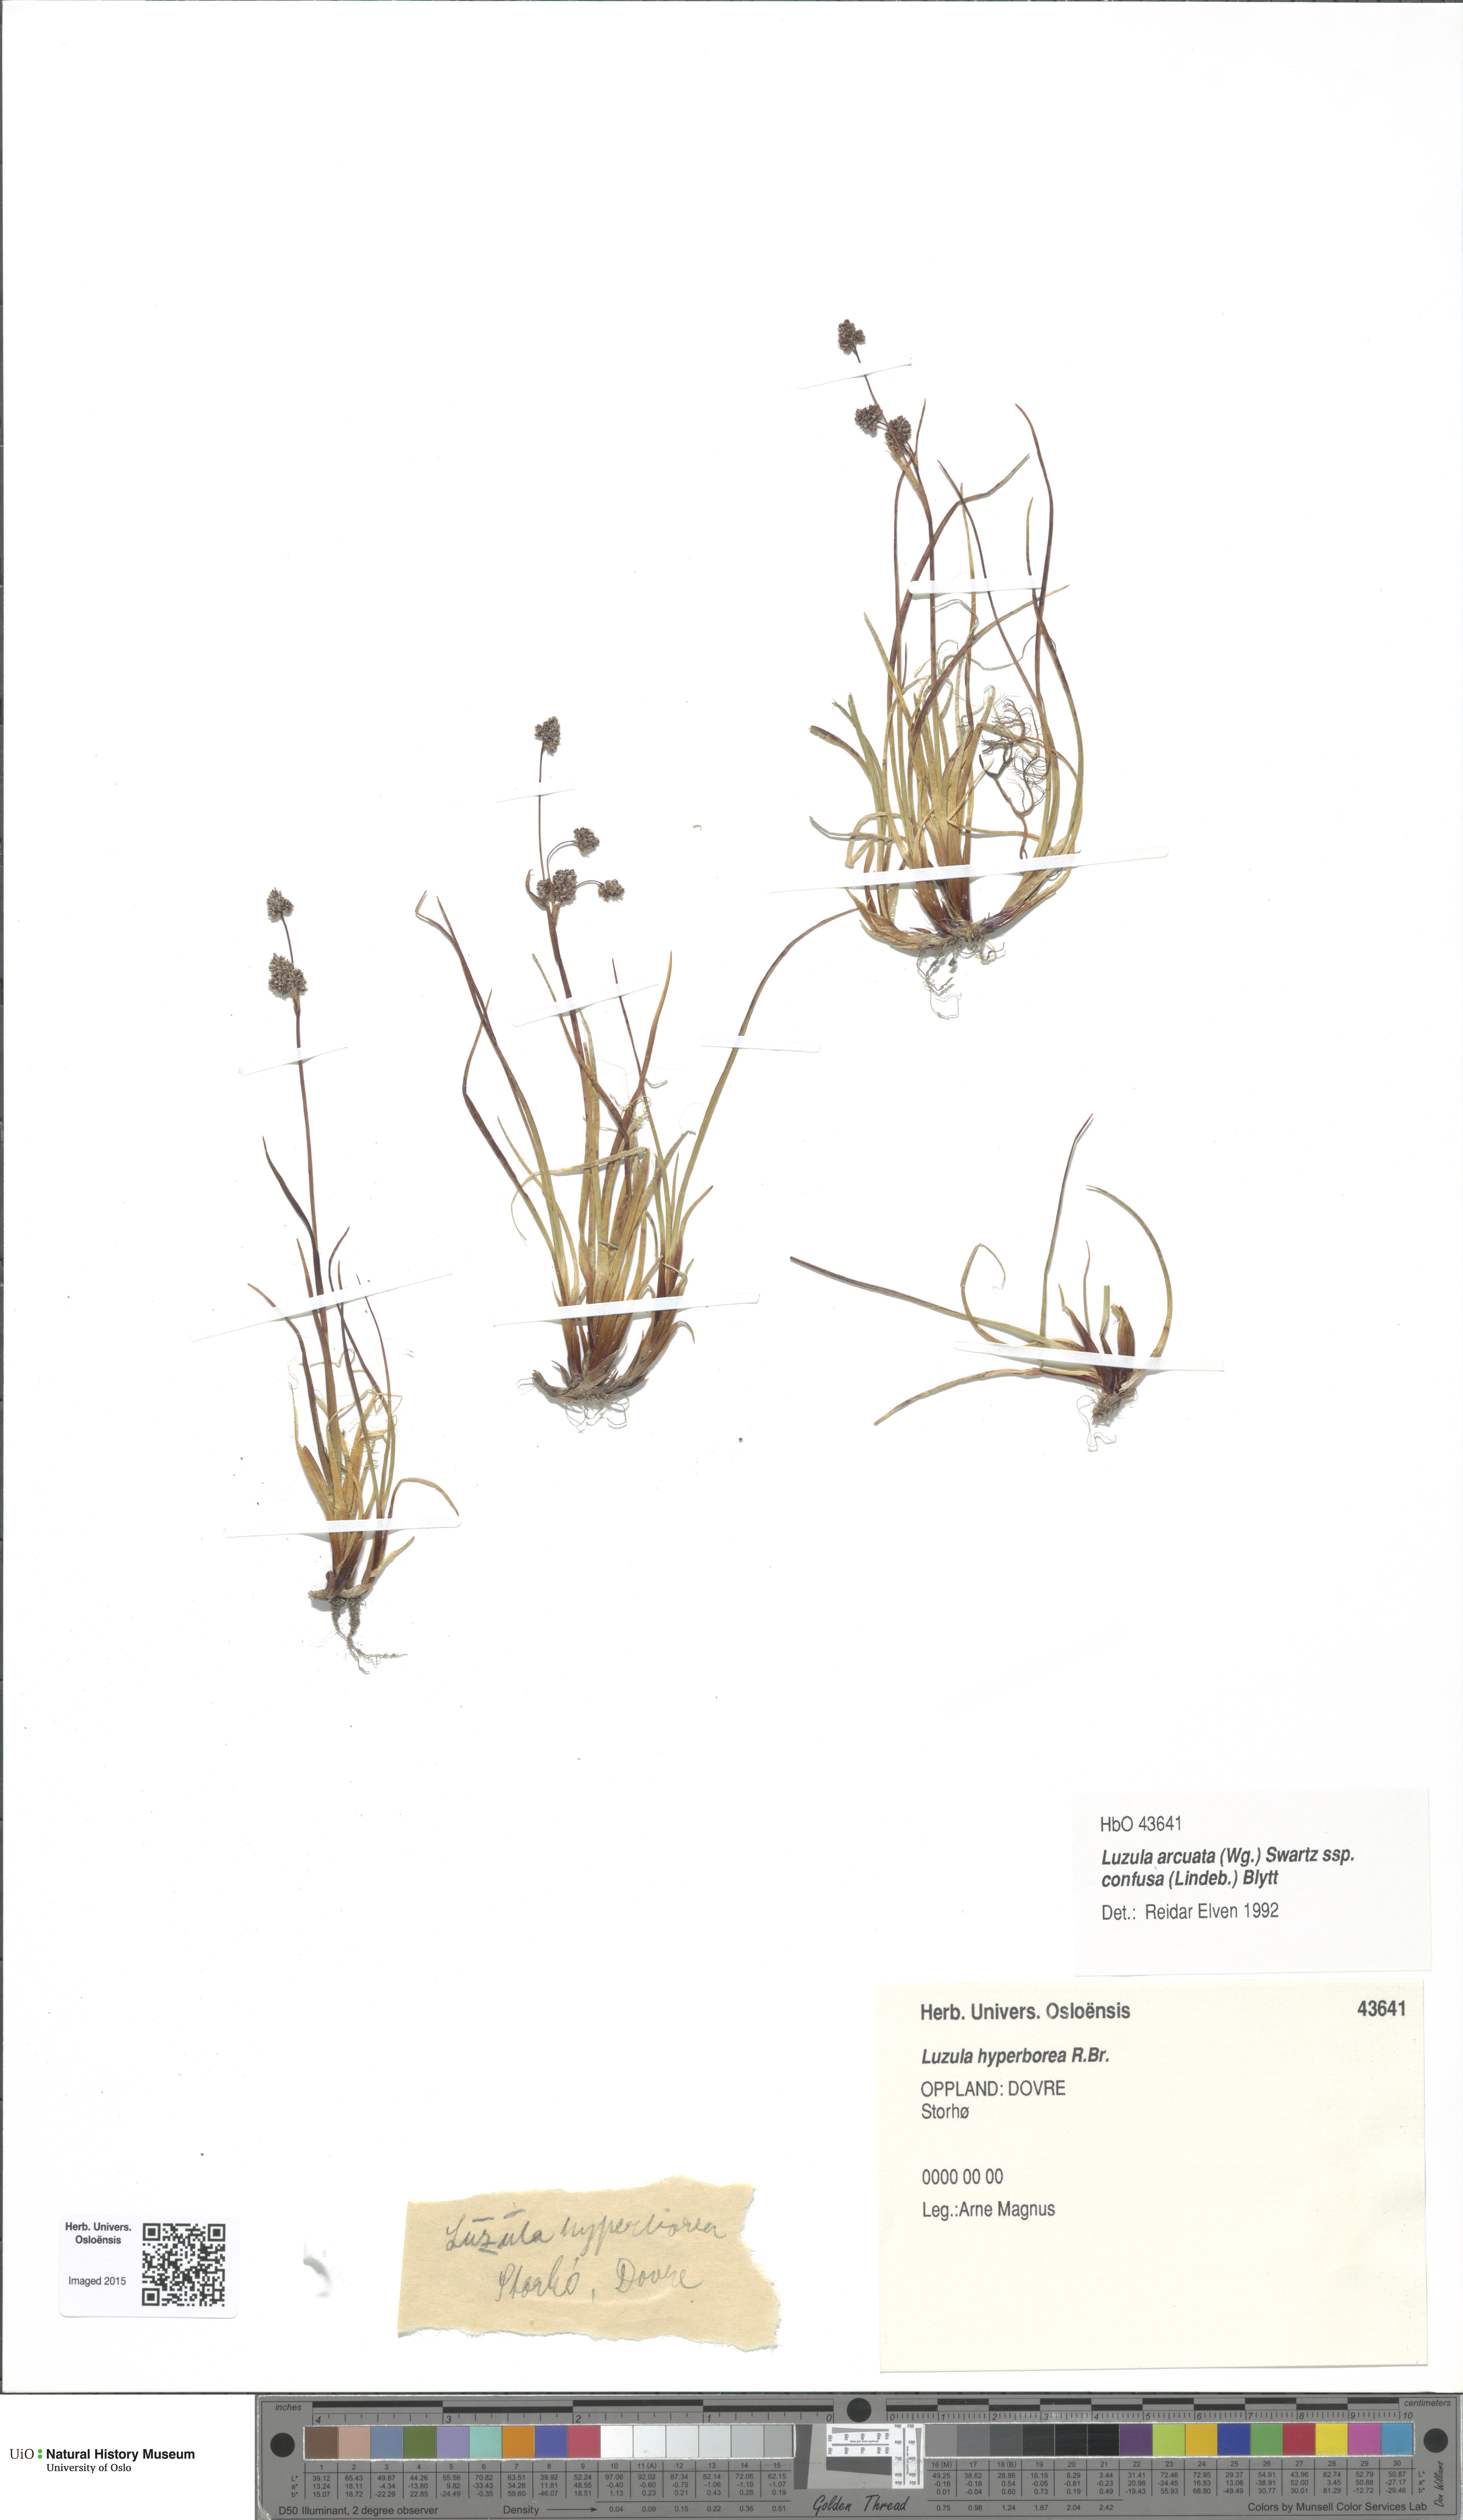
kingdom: Plantae
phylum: Tracheophyta
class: Liliopsida
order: Poales
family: Juncaceae
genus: Luzula
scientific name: Luzula confusa
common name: Northern wood rush
